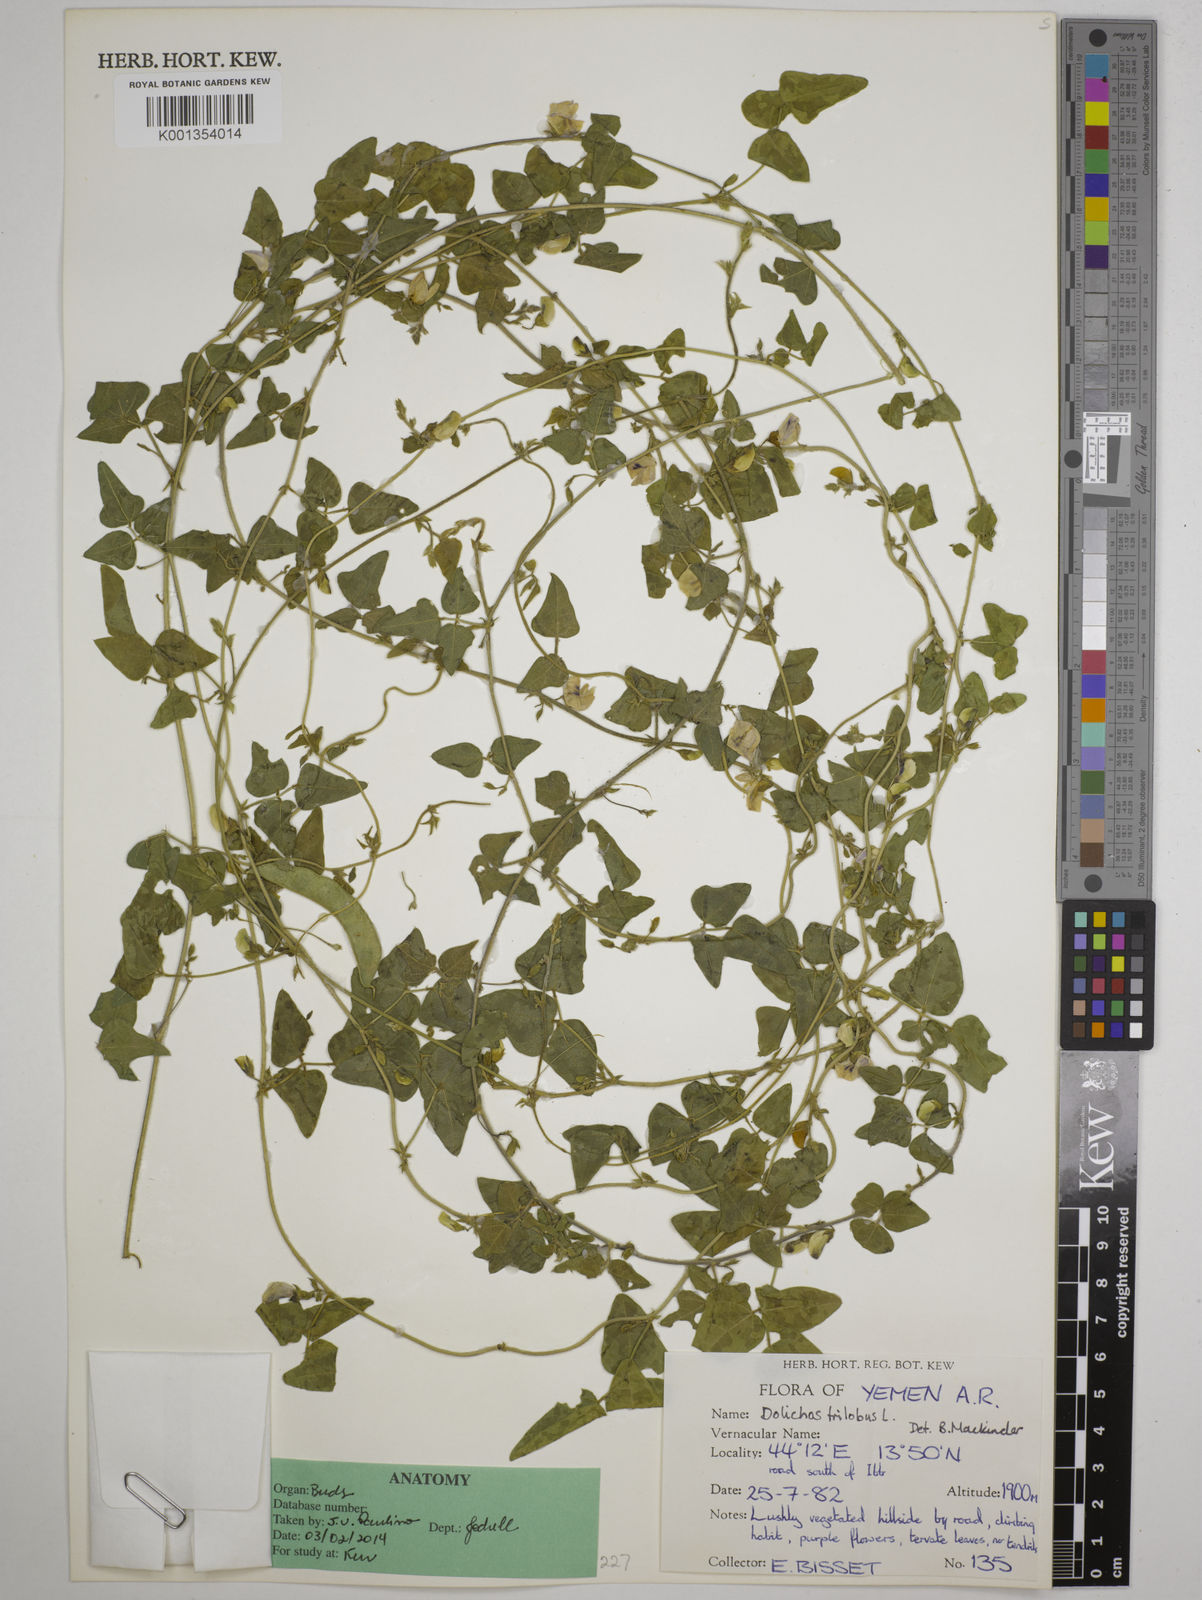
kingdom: Plantae
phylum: Tracheophyta
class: Magnoliopsida
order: Fabales
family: Fabaceae
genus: Dolichos
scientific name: Dolichos
